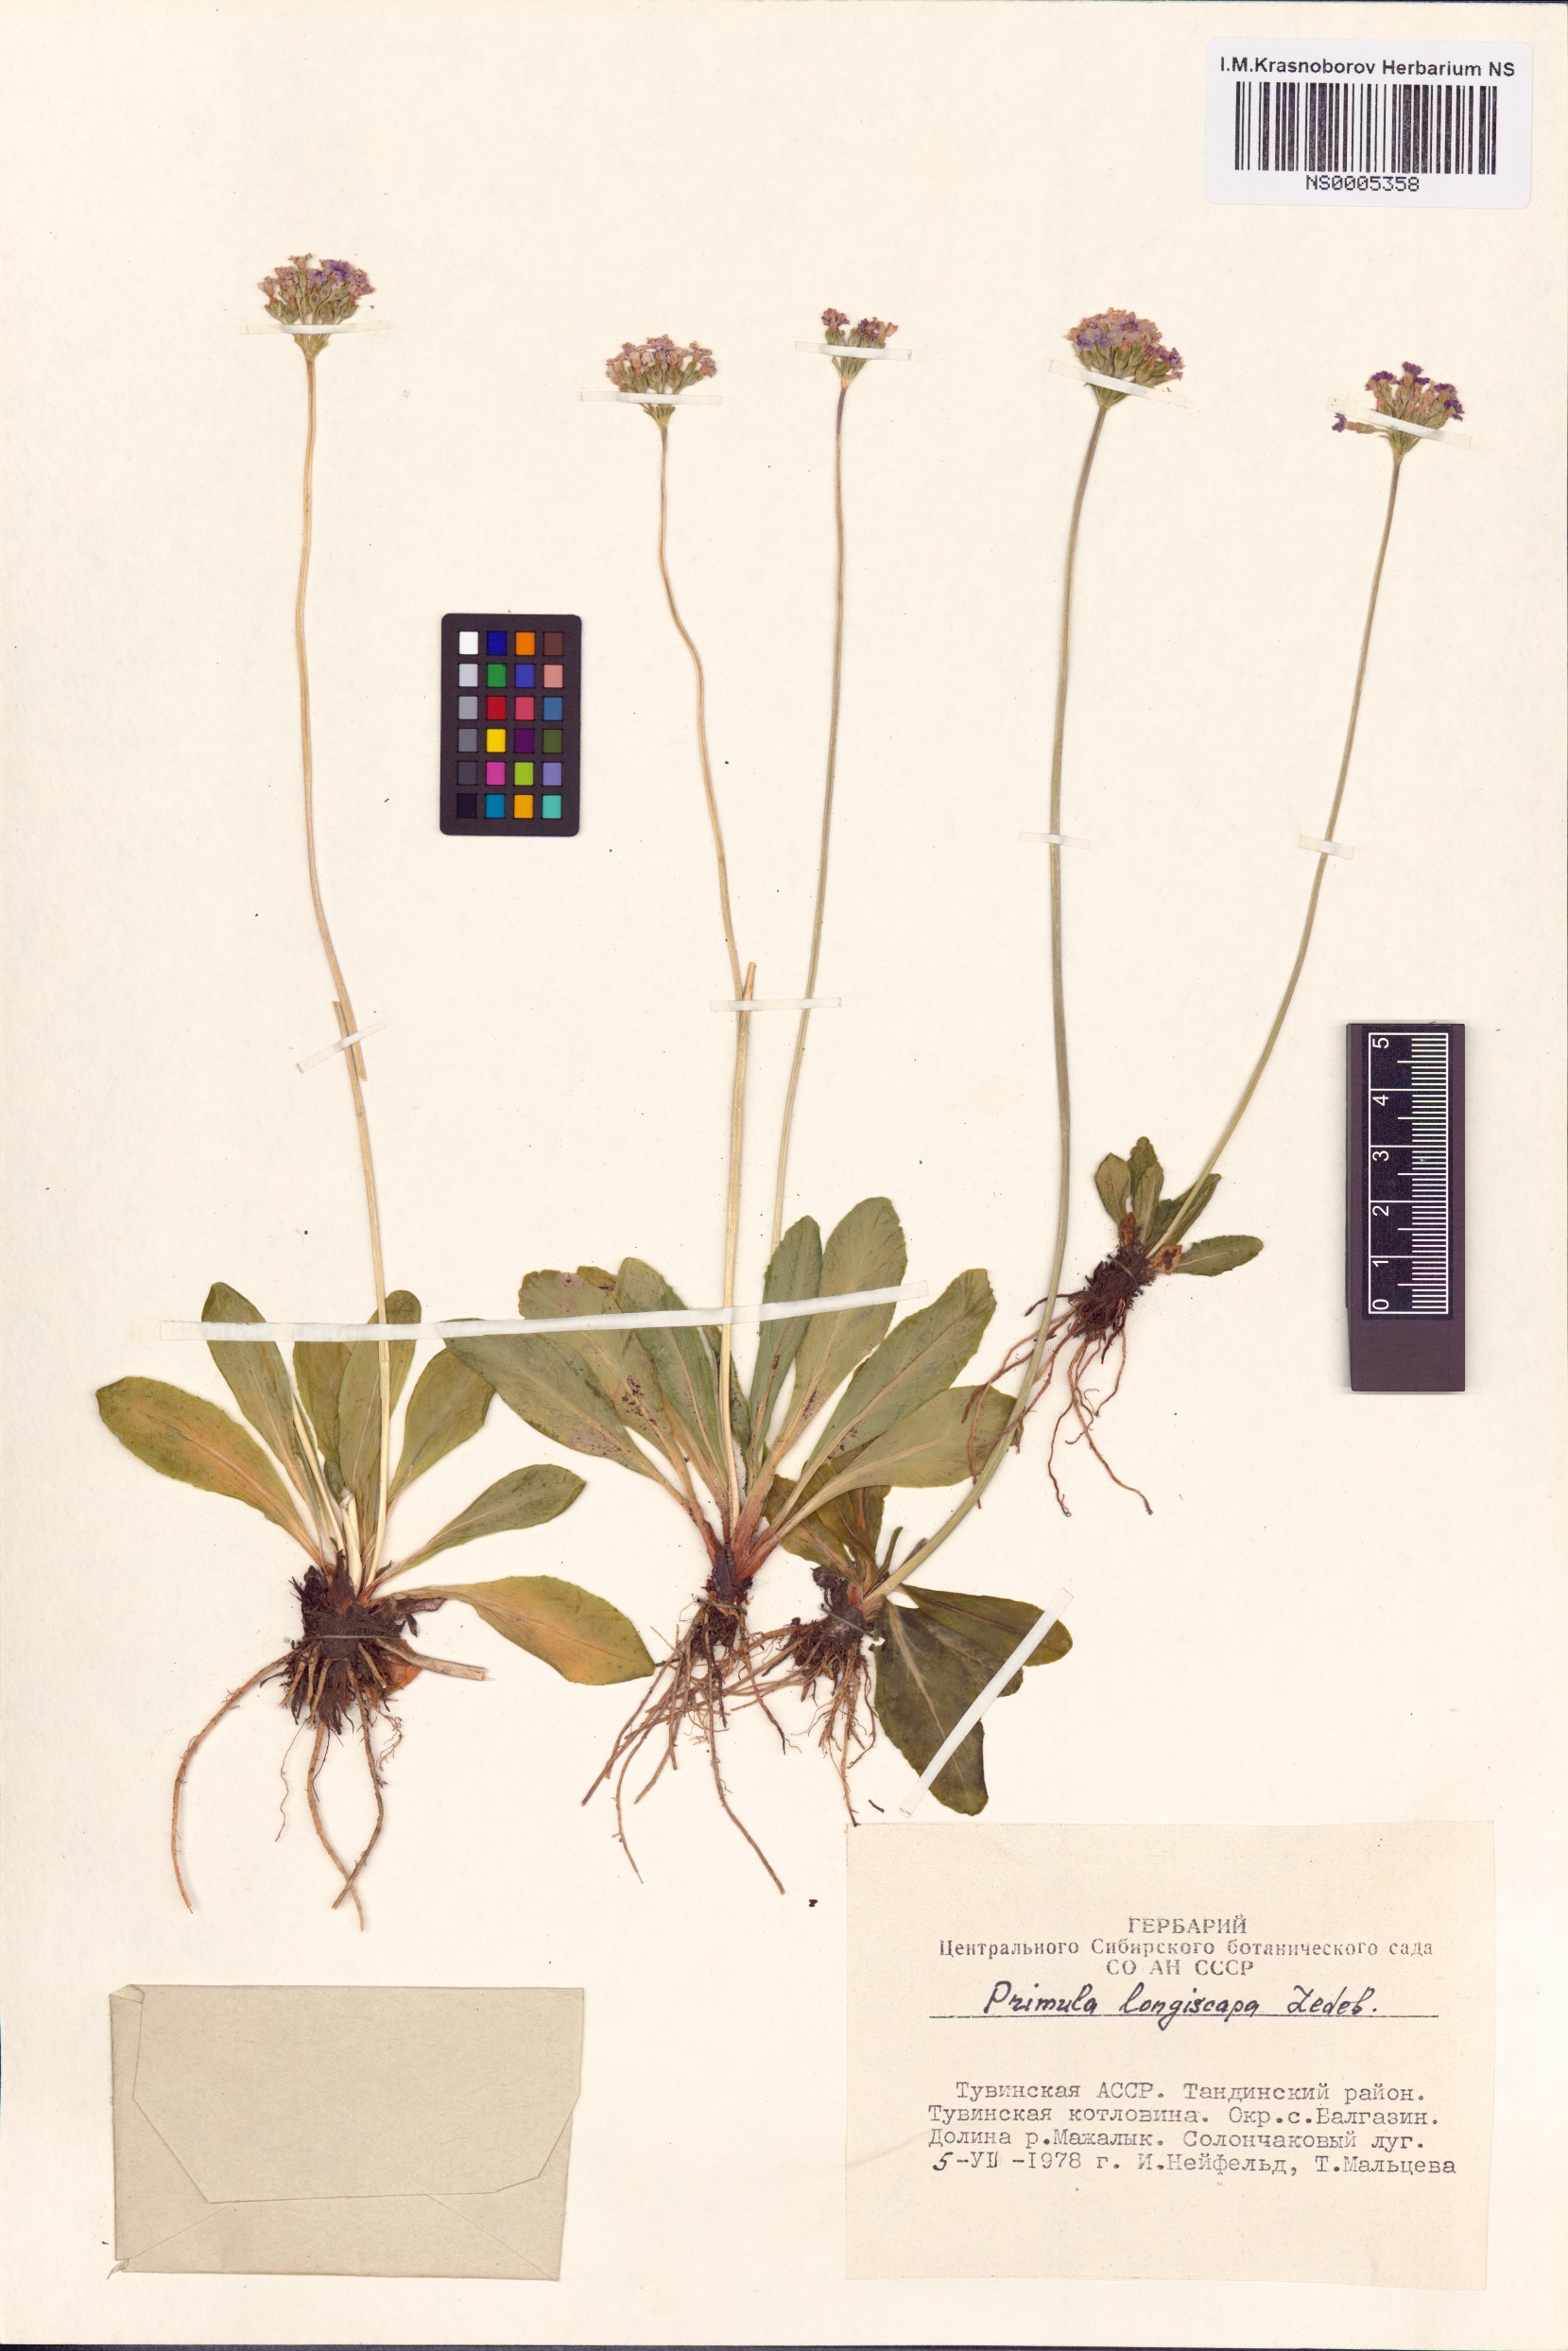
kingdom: Plantae
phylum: Tracheophyta
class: Magnoliopsida
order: Ericales
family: Primulaceae
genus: Primula
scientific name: Primula longiscapa
